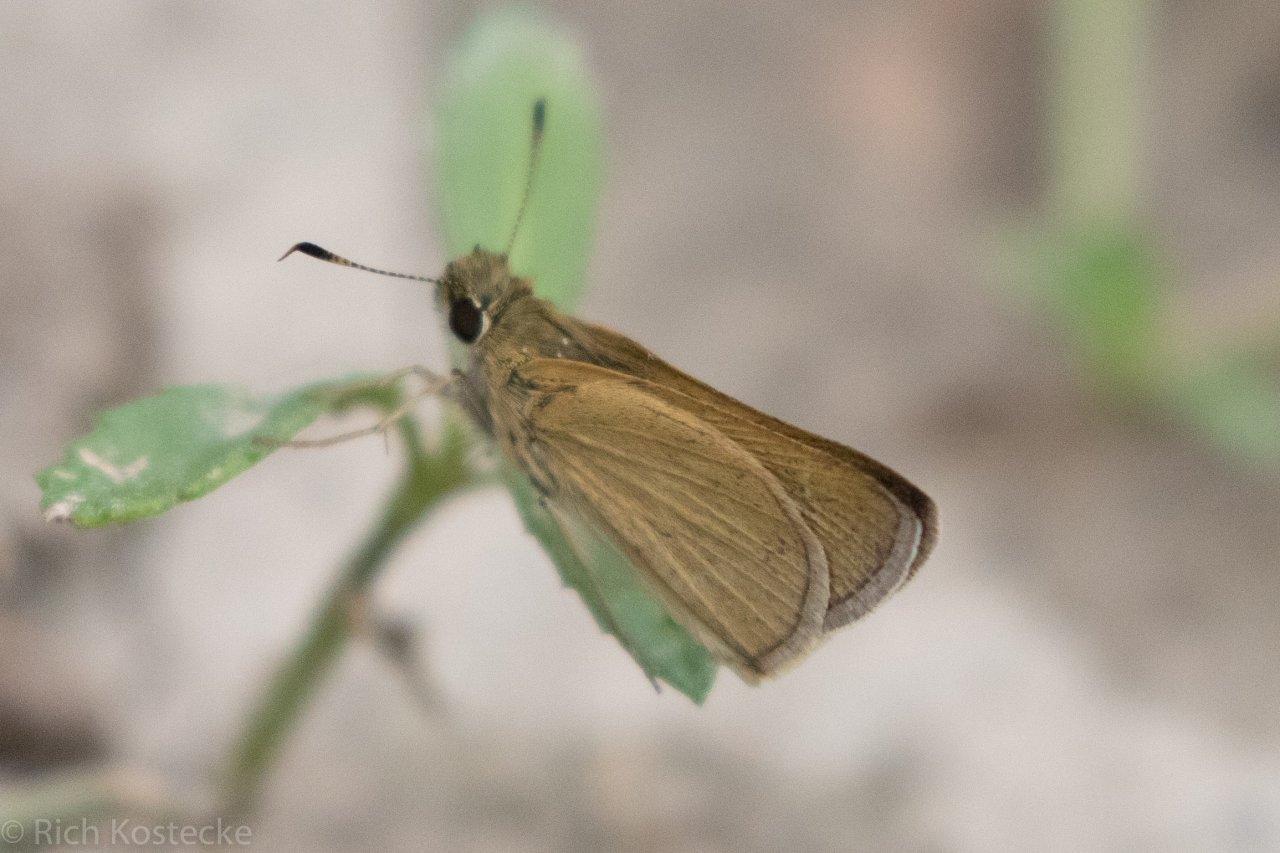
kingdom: Animalia
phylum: Arthropoda
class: Insecta
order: Lepidoptera
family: Hesperiidae
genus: Nastra
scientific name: Nastra julia
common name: Julia's Skipper
